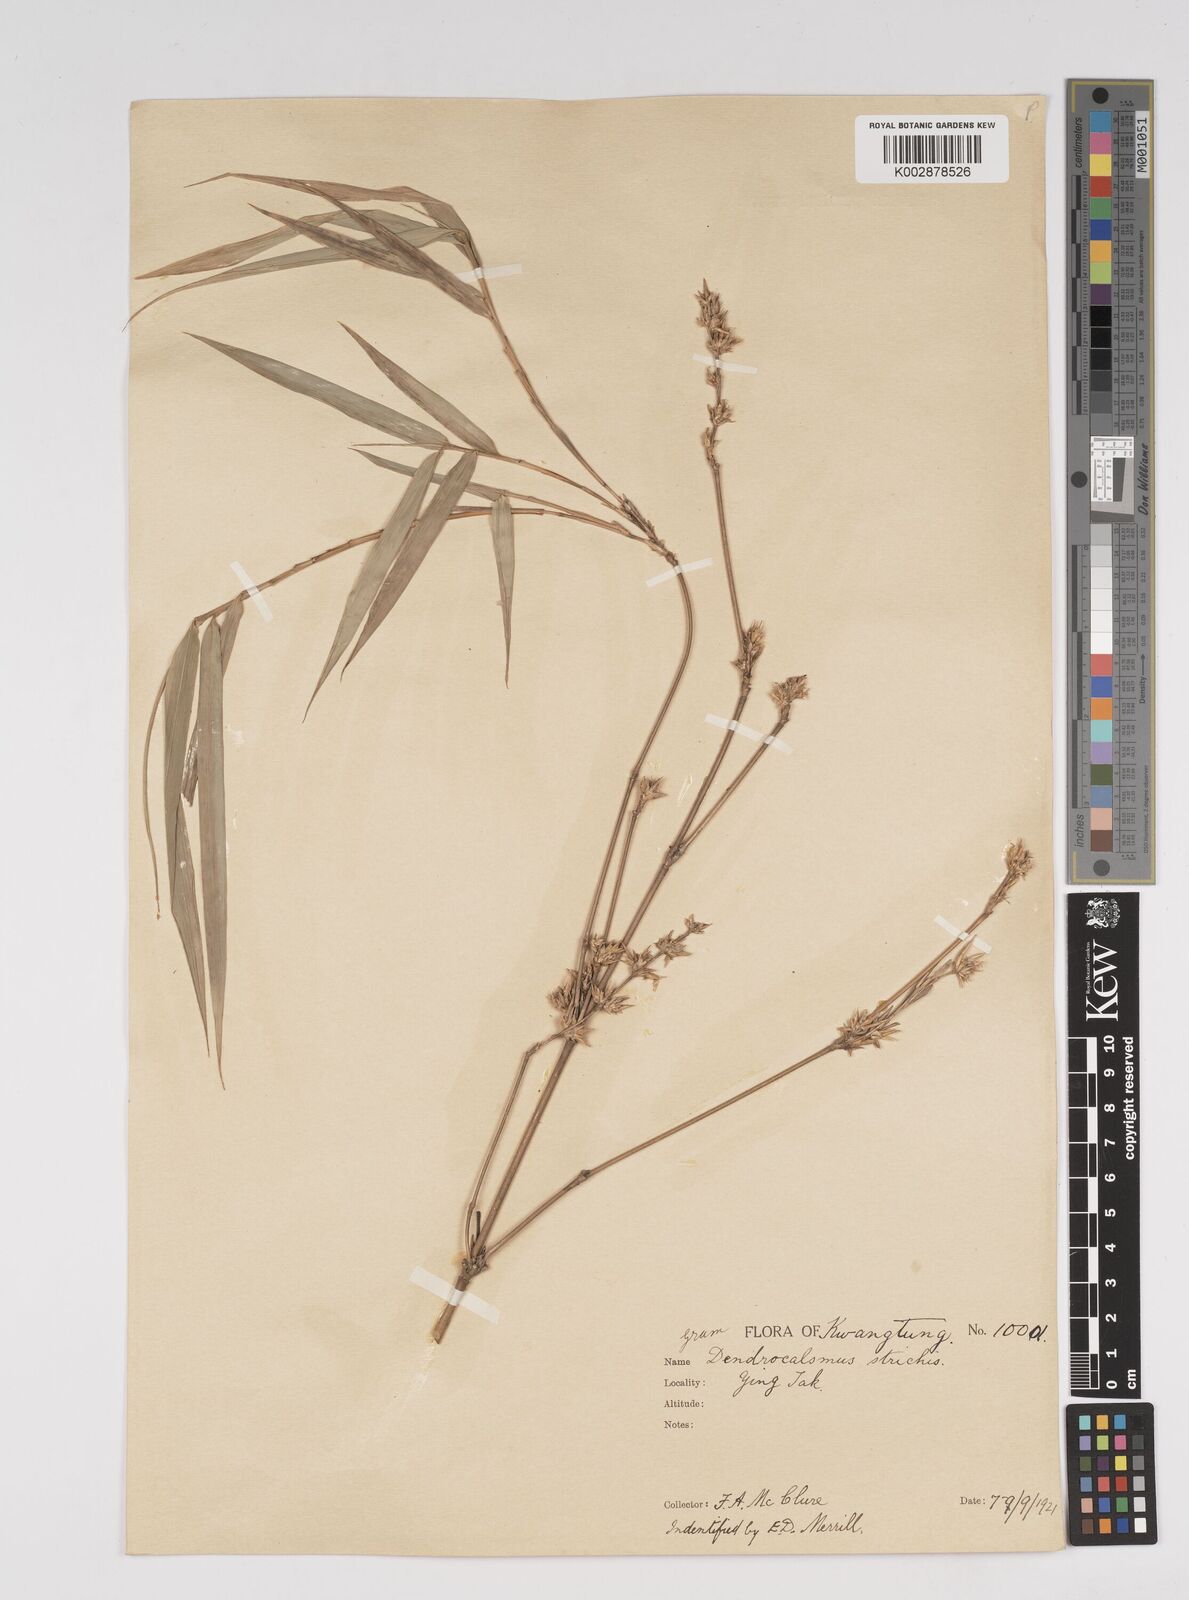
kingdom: Plantae
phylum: Tracheophyta
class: Liliopsida
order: Poales
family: Poaceae
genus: Dendrocalamus
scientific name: Dendrocalamus
